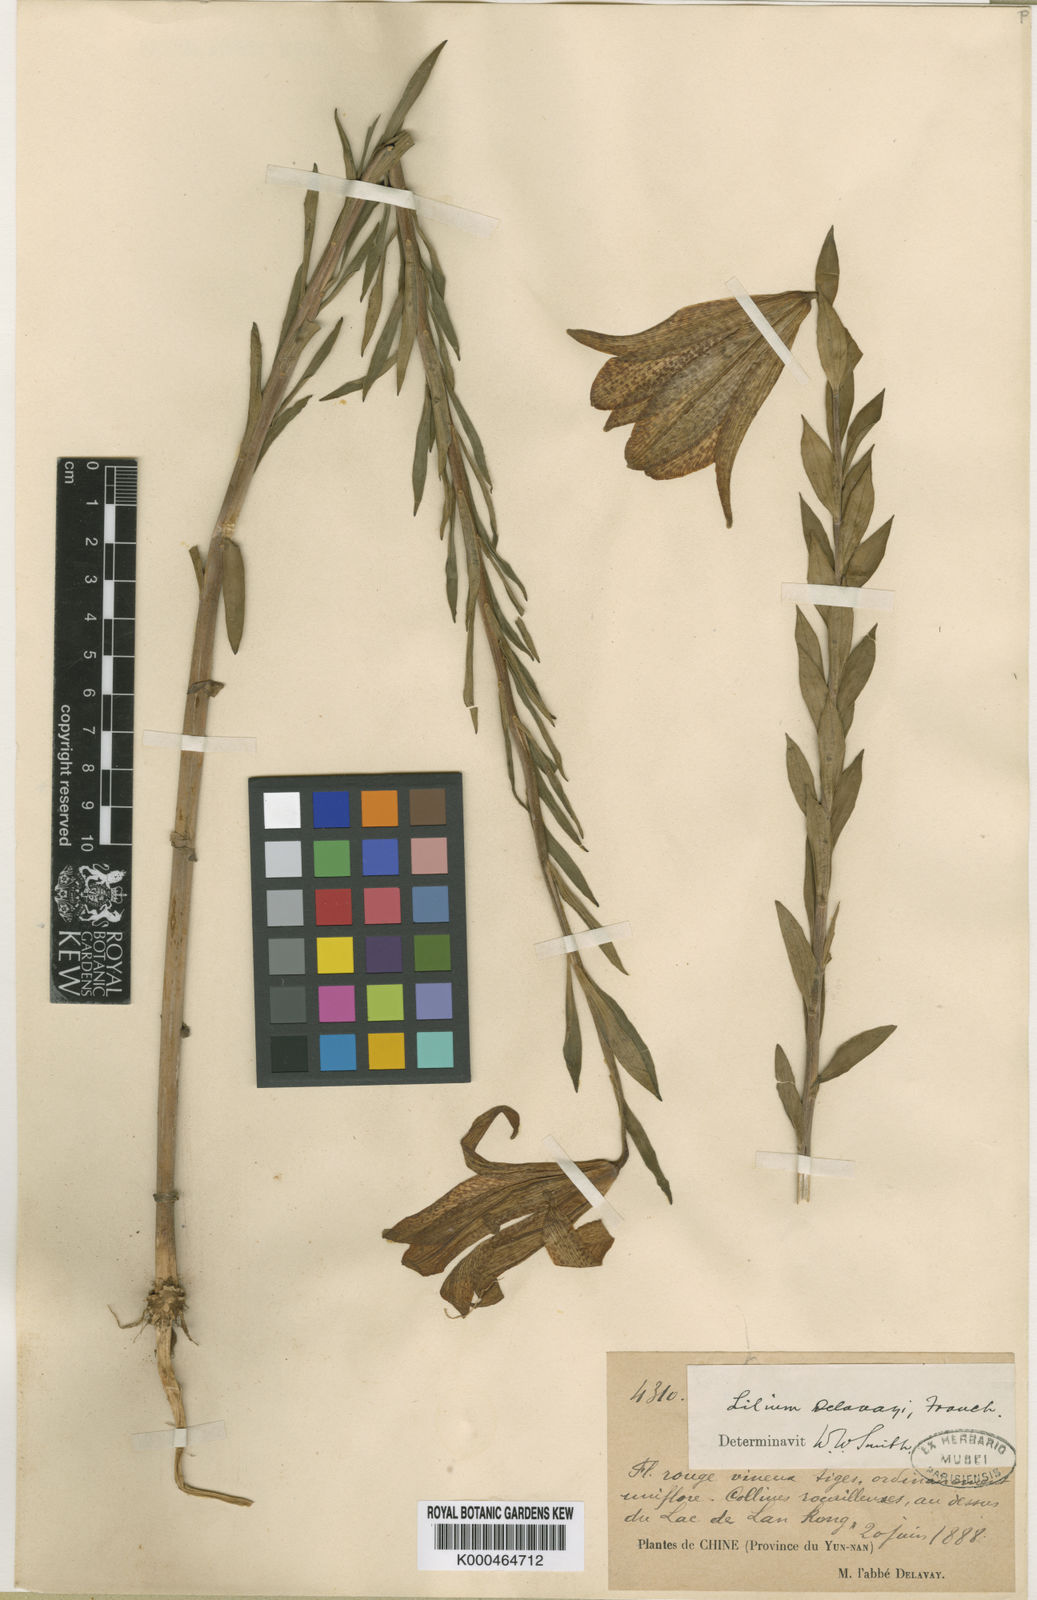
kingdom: Plantae
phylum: Tracheophyta
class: Liliopsida
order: Liliales
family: Liliaceae
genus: Lilium
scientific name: Lilium bakerianum
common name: Baker's lily
